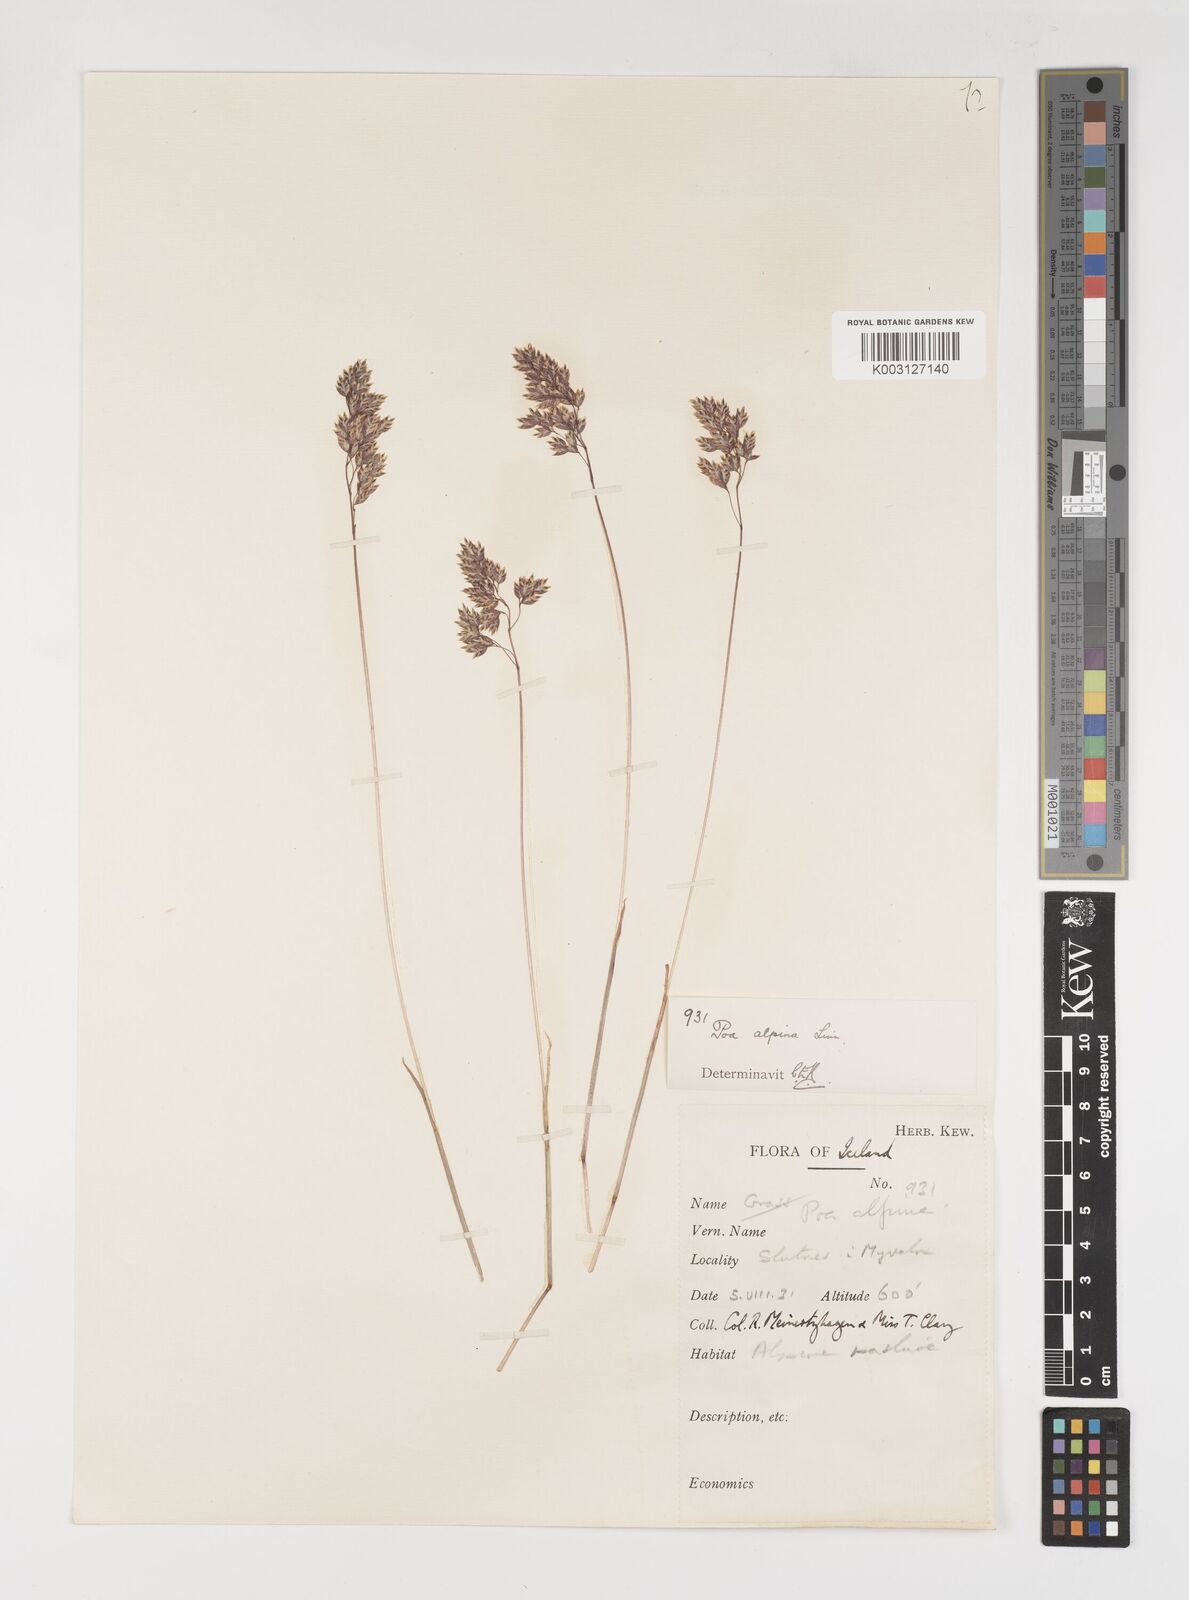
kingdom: Plantae
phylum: Tracheophyta
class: Liliopsida
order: Poales
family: Poaceae
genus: Poa
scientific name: Poa alpina
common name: Alpine bluegrass
